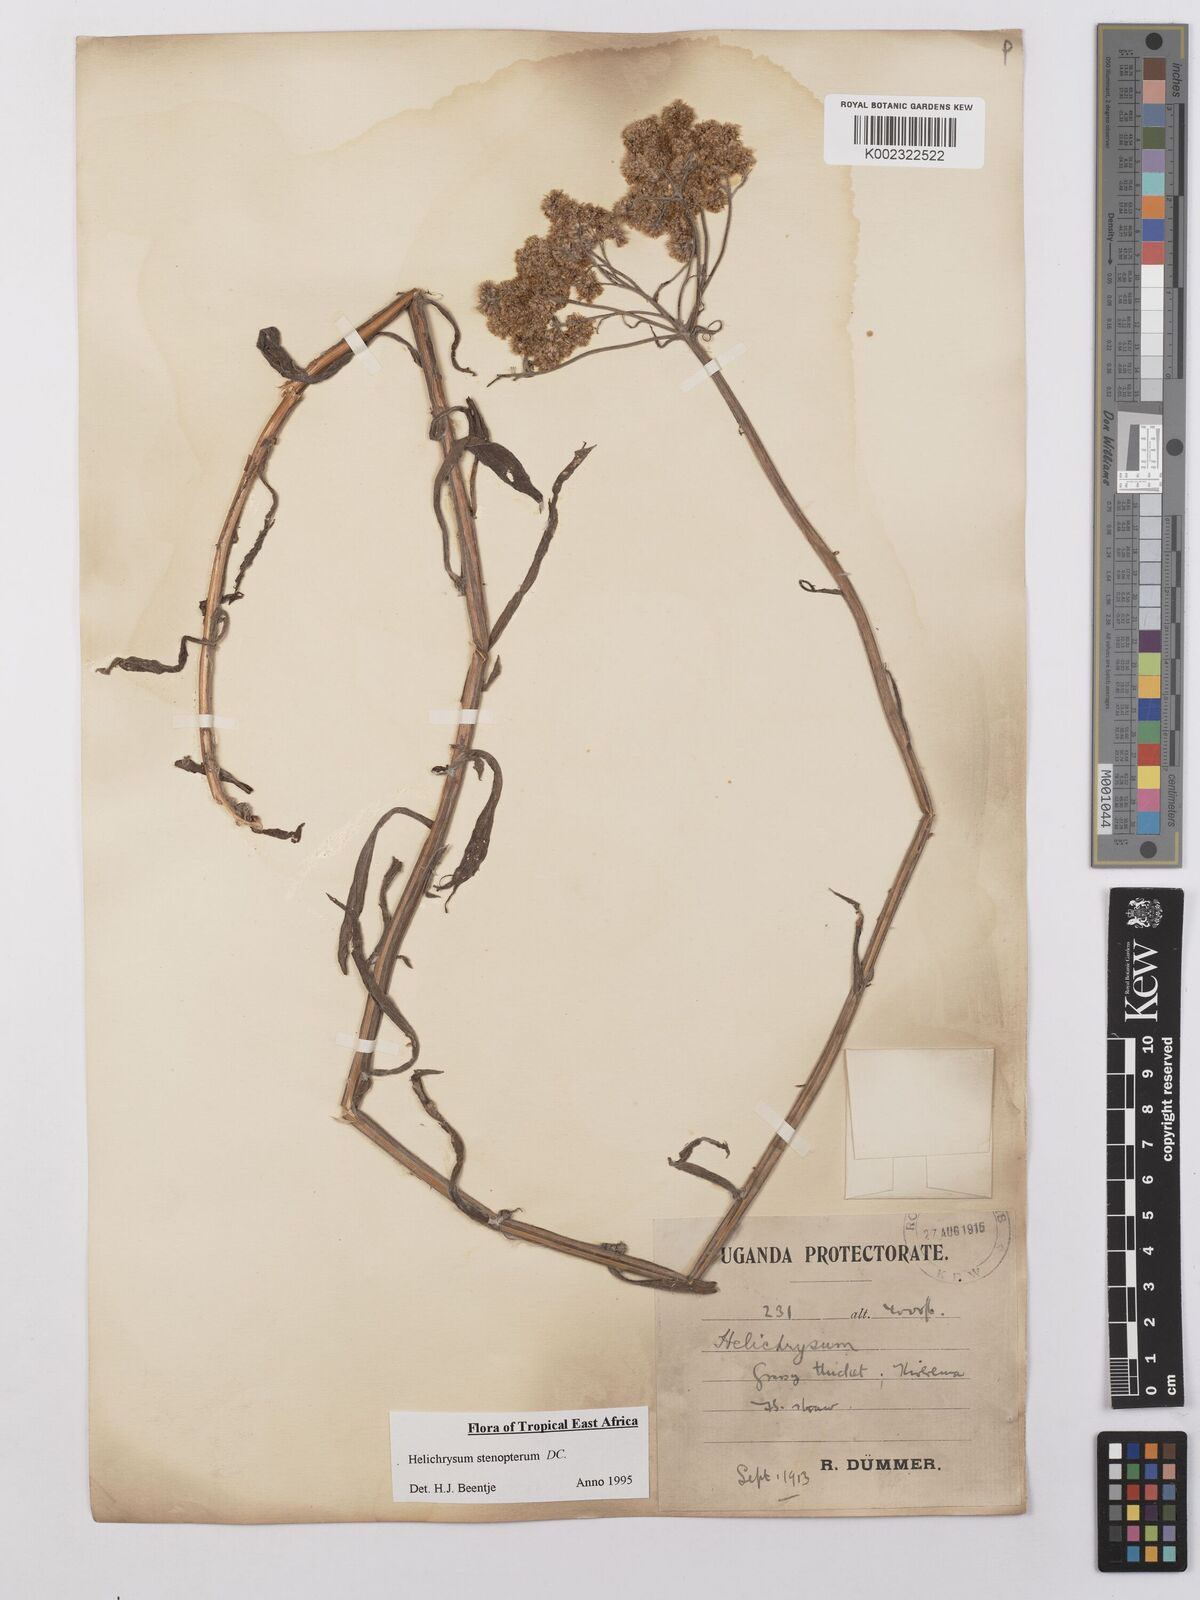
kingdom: Plantae
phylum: Tracheophyta
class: Magnoliopsida
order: Asterales
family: Asteraceae
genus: Helichrysum
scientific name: Helichrysum stenopterum
